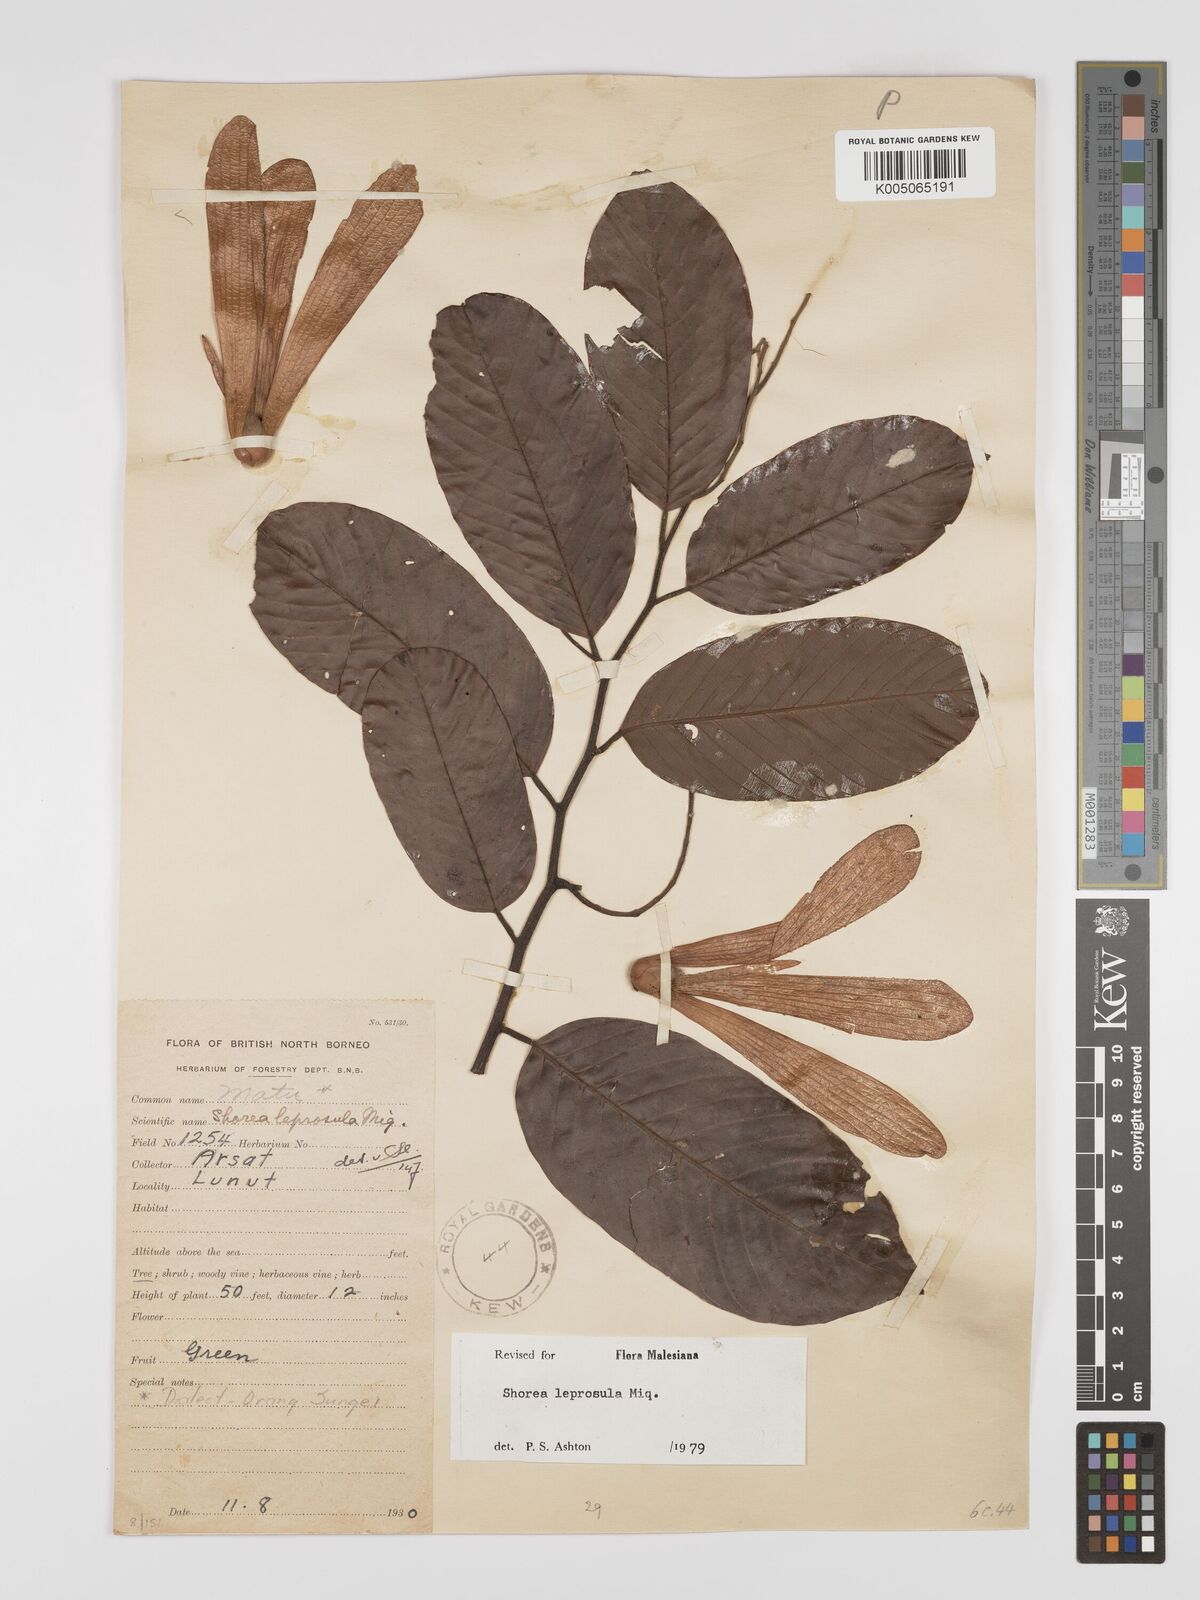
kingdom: Plantae
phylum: Tracheophyta
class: Magnoliopsida
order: Malvales
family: Dipterocarpaceae
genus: Shorea
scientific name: Shorea leprosula
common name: Light red meranti
